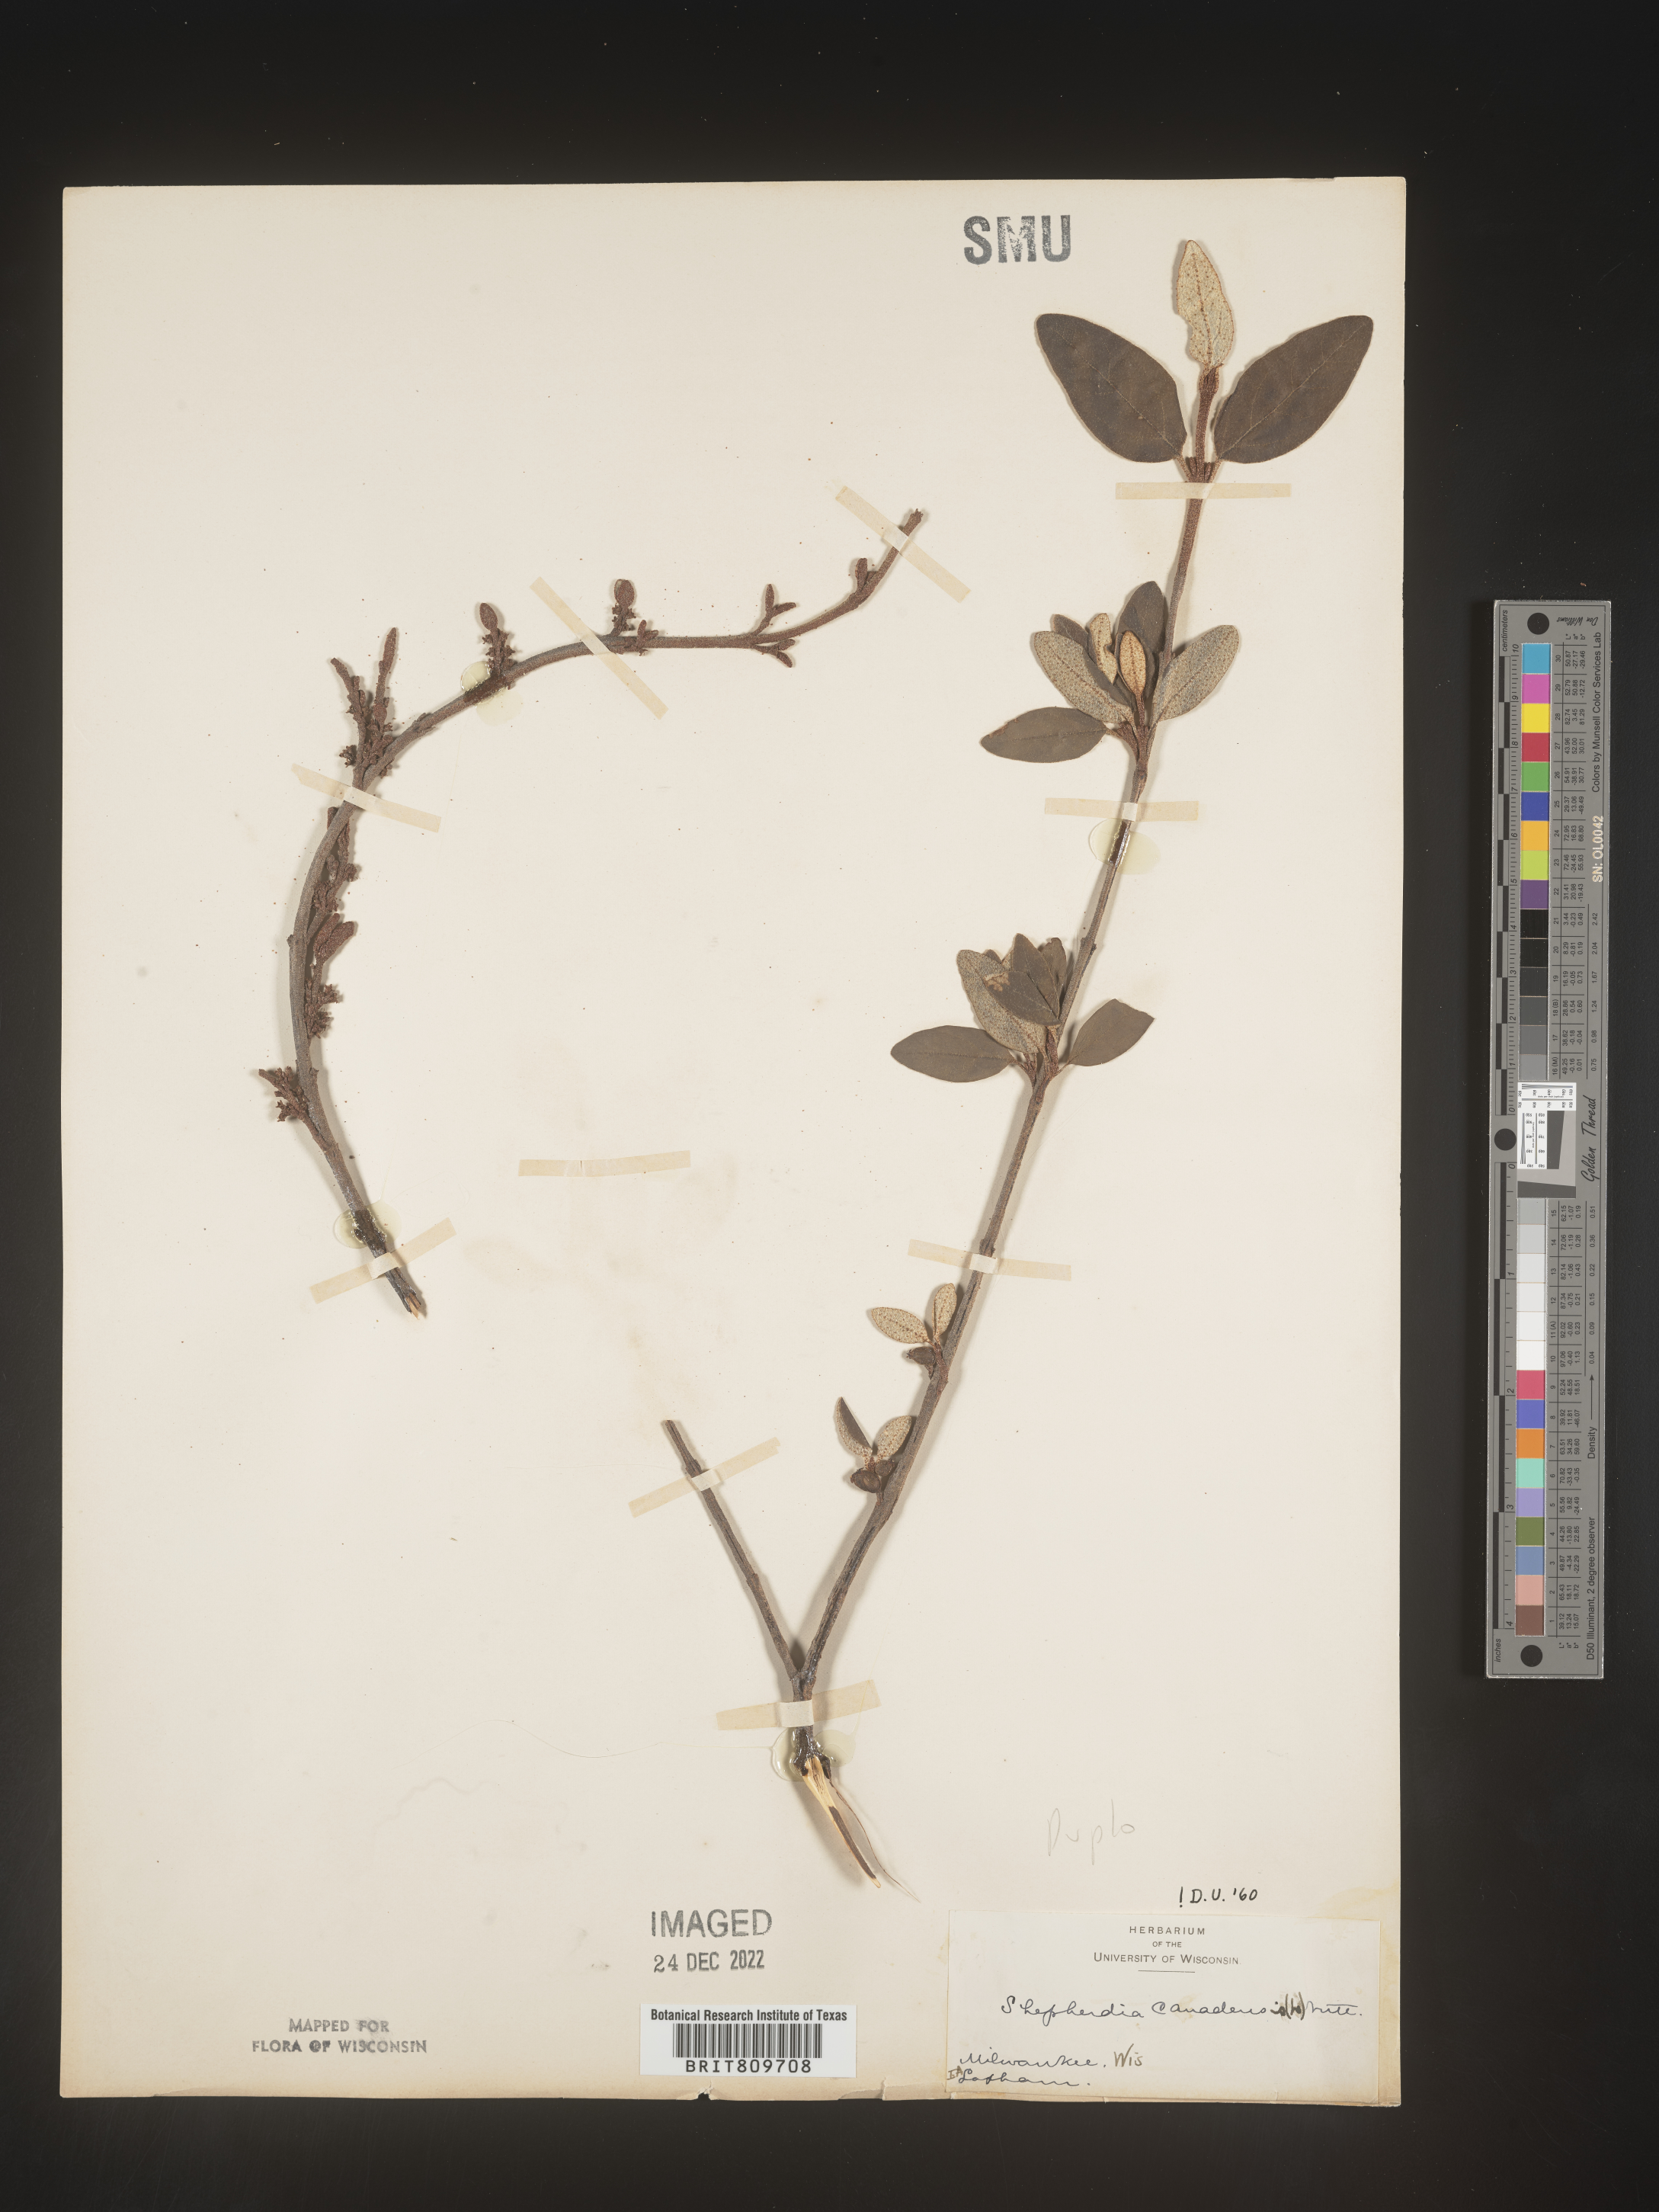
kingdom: Plantae
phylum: Tracheophyta
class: Magnoliopsida
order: Rosales
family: Elaeagnaceae
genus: Shepherdia
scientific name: Shepherdia canadensis
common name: Soapberry
